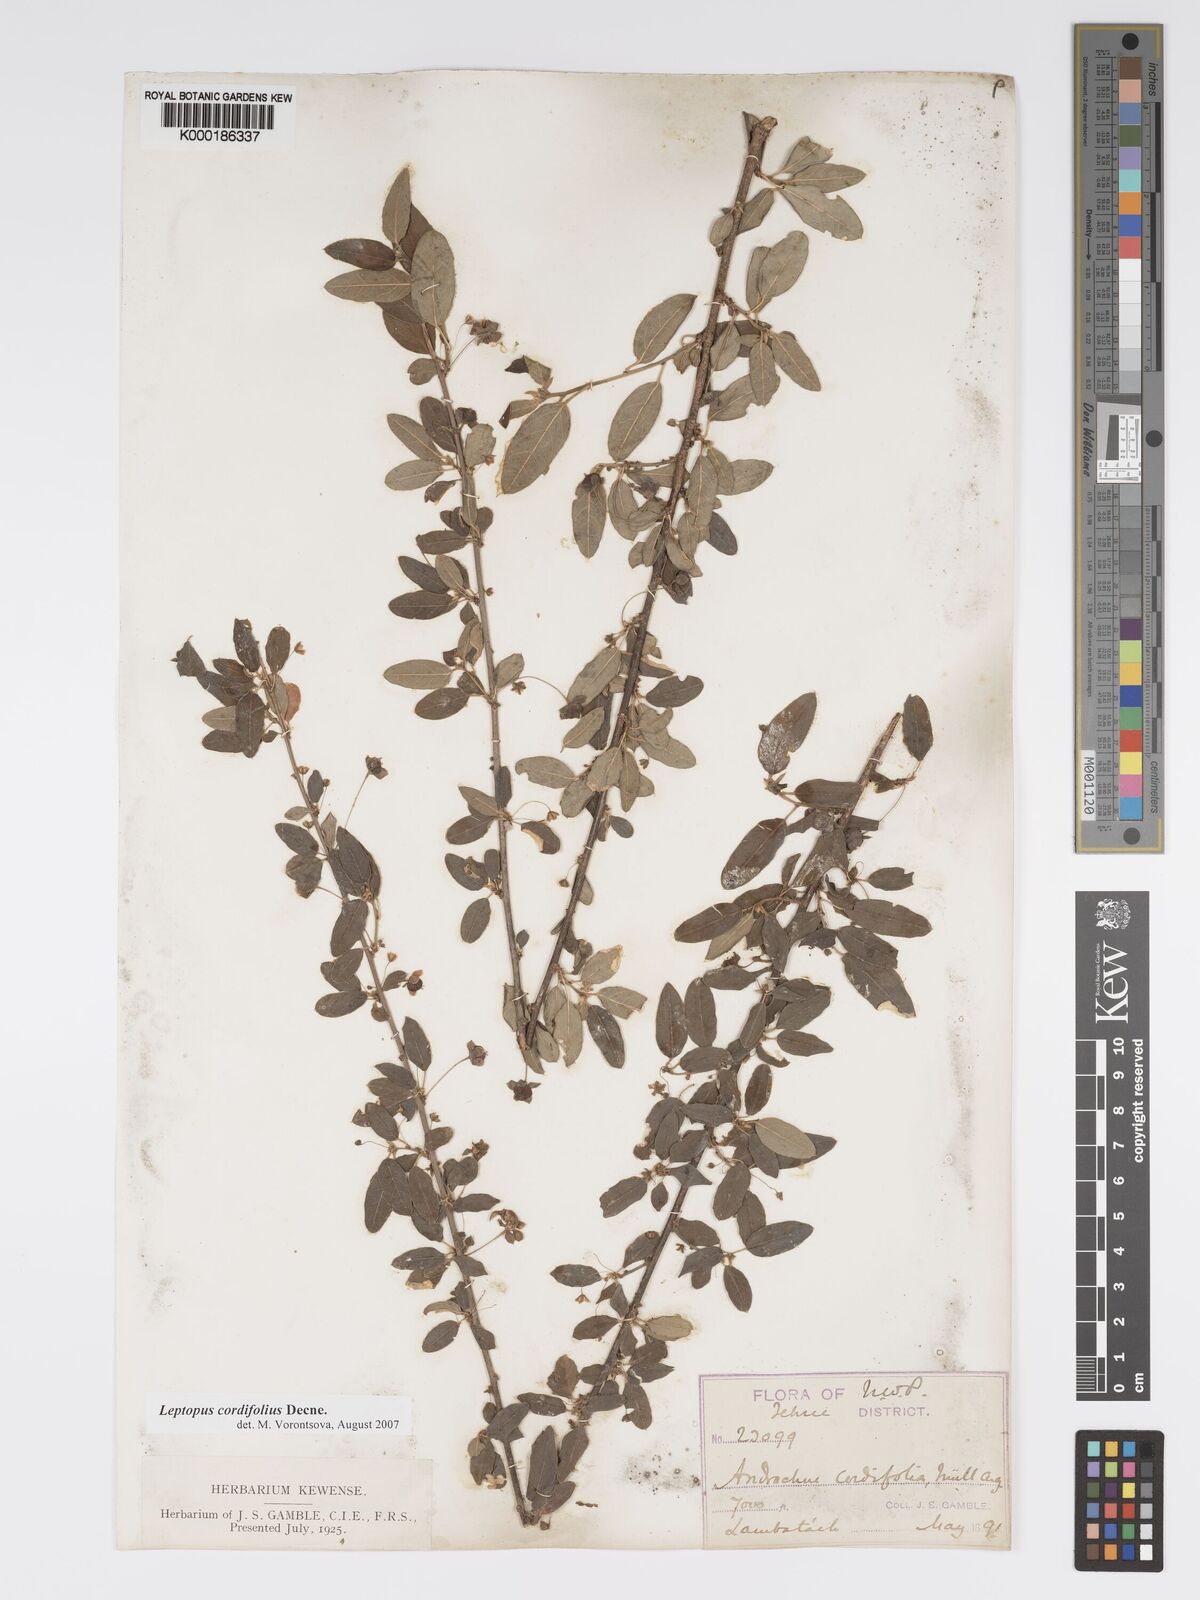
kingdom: Plantae
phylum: Tracheophyta
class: Magnoliopsida
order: Malpighiales
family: Phyllanthaceae
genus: Leptopus
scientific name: Leptopus cordifolius
